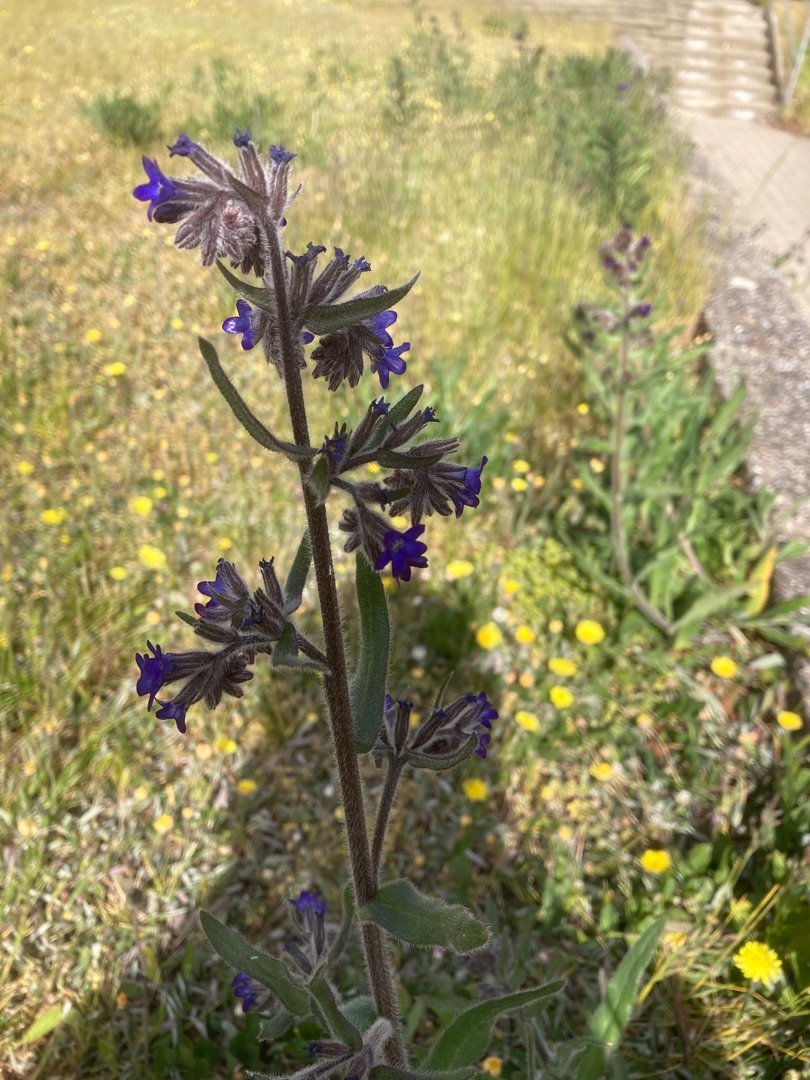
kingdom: Plantae
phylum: Tracheophyta
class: Magnoliopsida
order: Boraginales
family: Boraginaceae
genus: Anchusa
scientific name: Anchusa officinalis
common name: Læge-oksetunge
